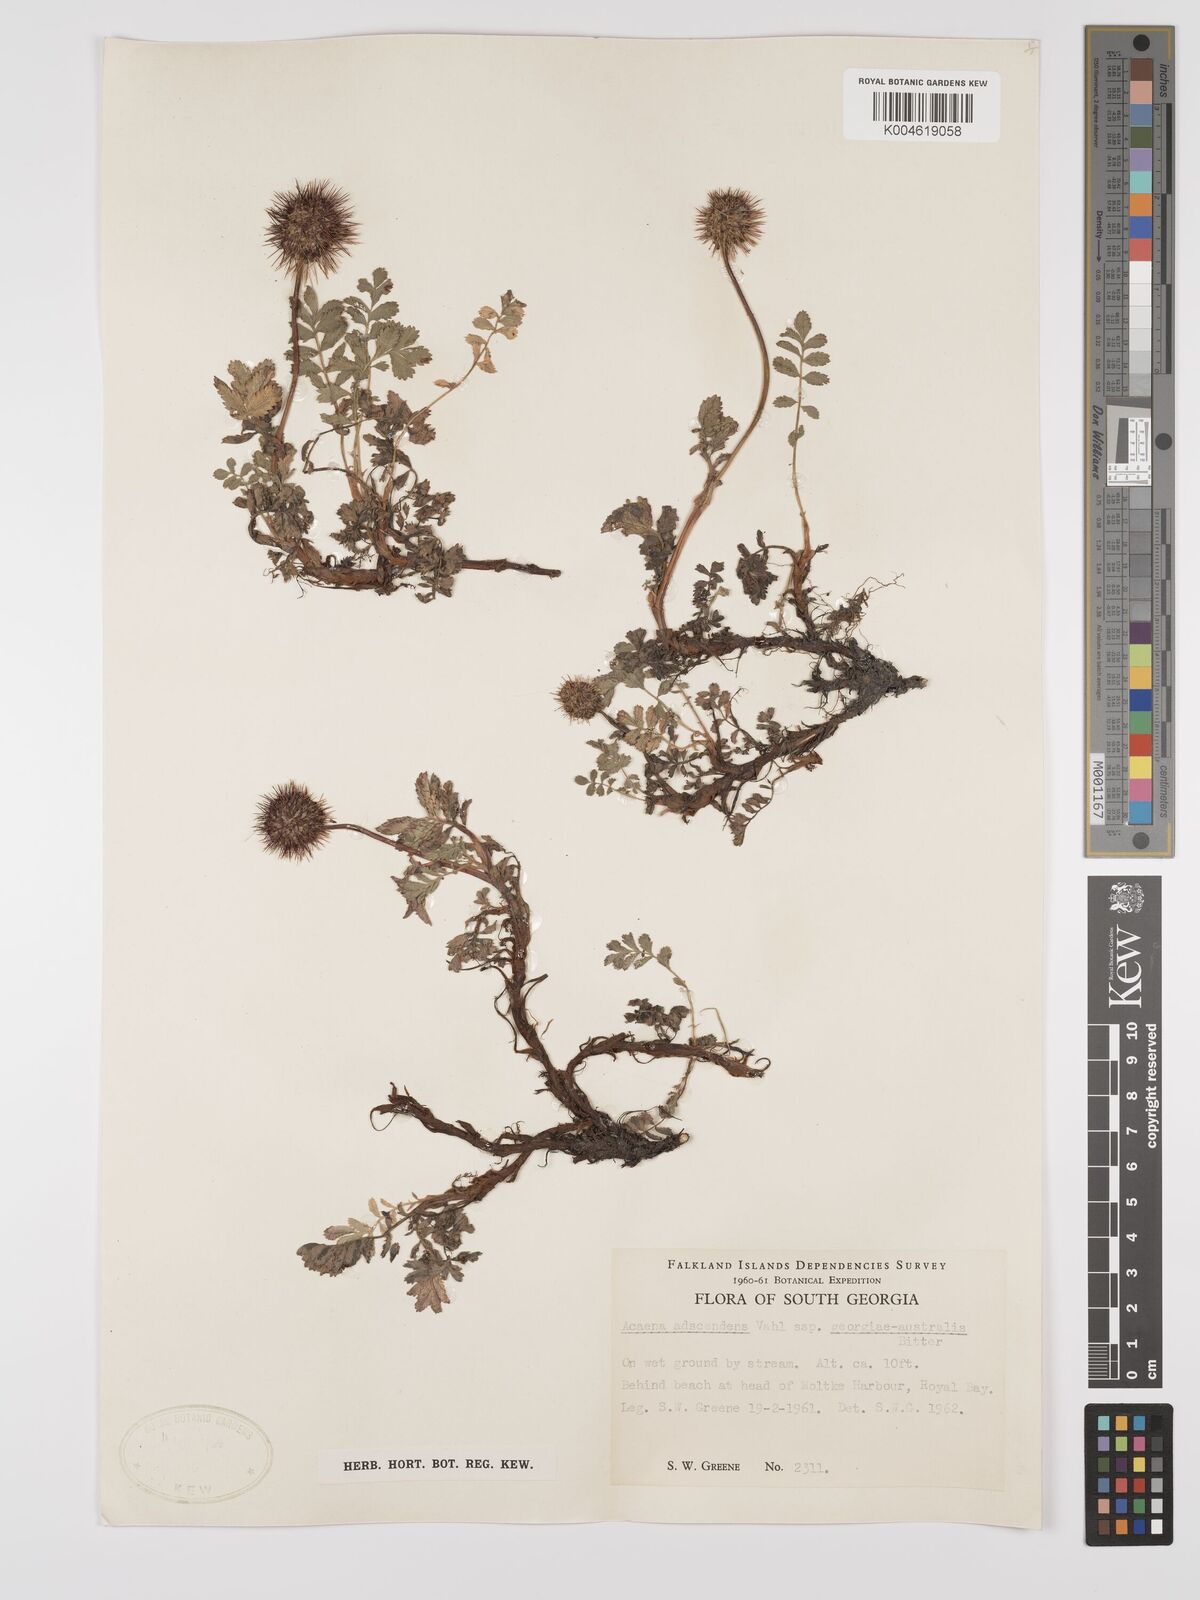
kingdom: Plantae
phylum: Tracheophyta
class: Magnoliopsida
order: Rosales
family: Rosaceae
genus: Acaena
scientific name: Acaena magellanica
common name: New zealand burr
